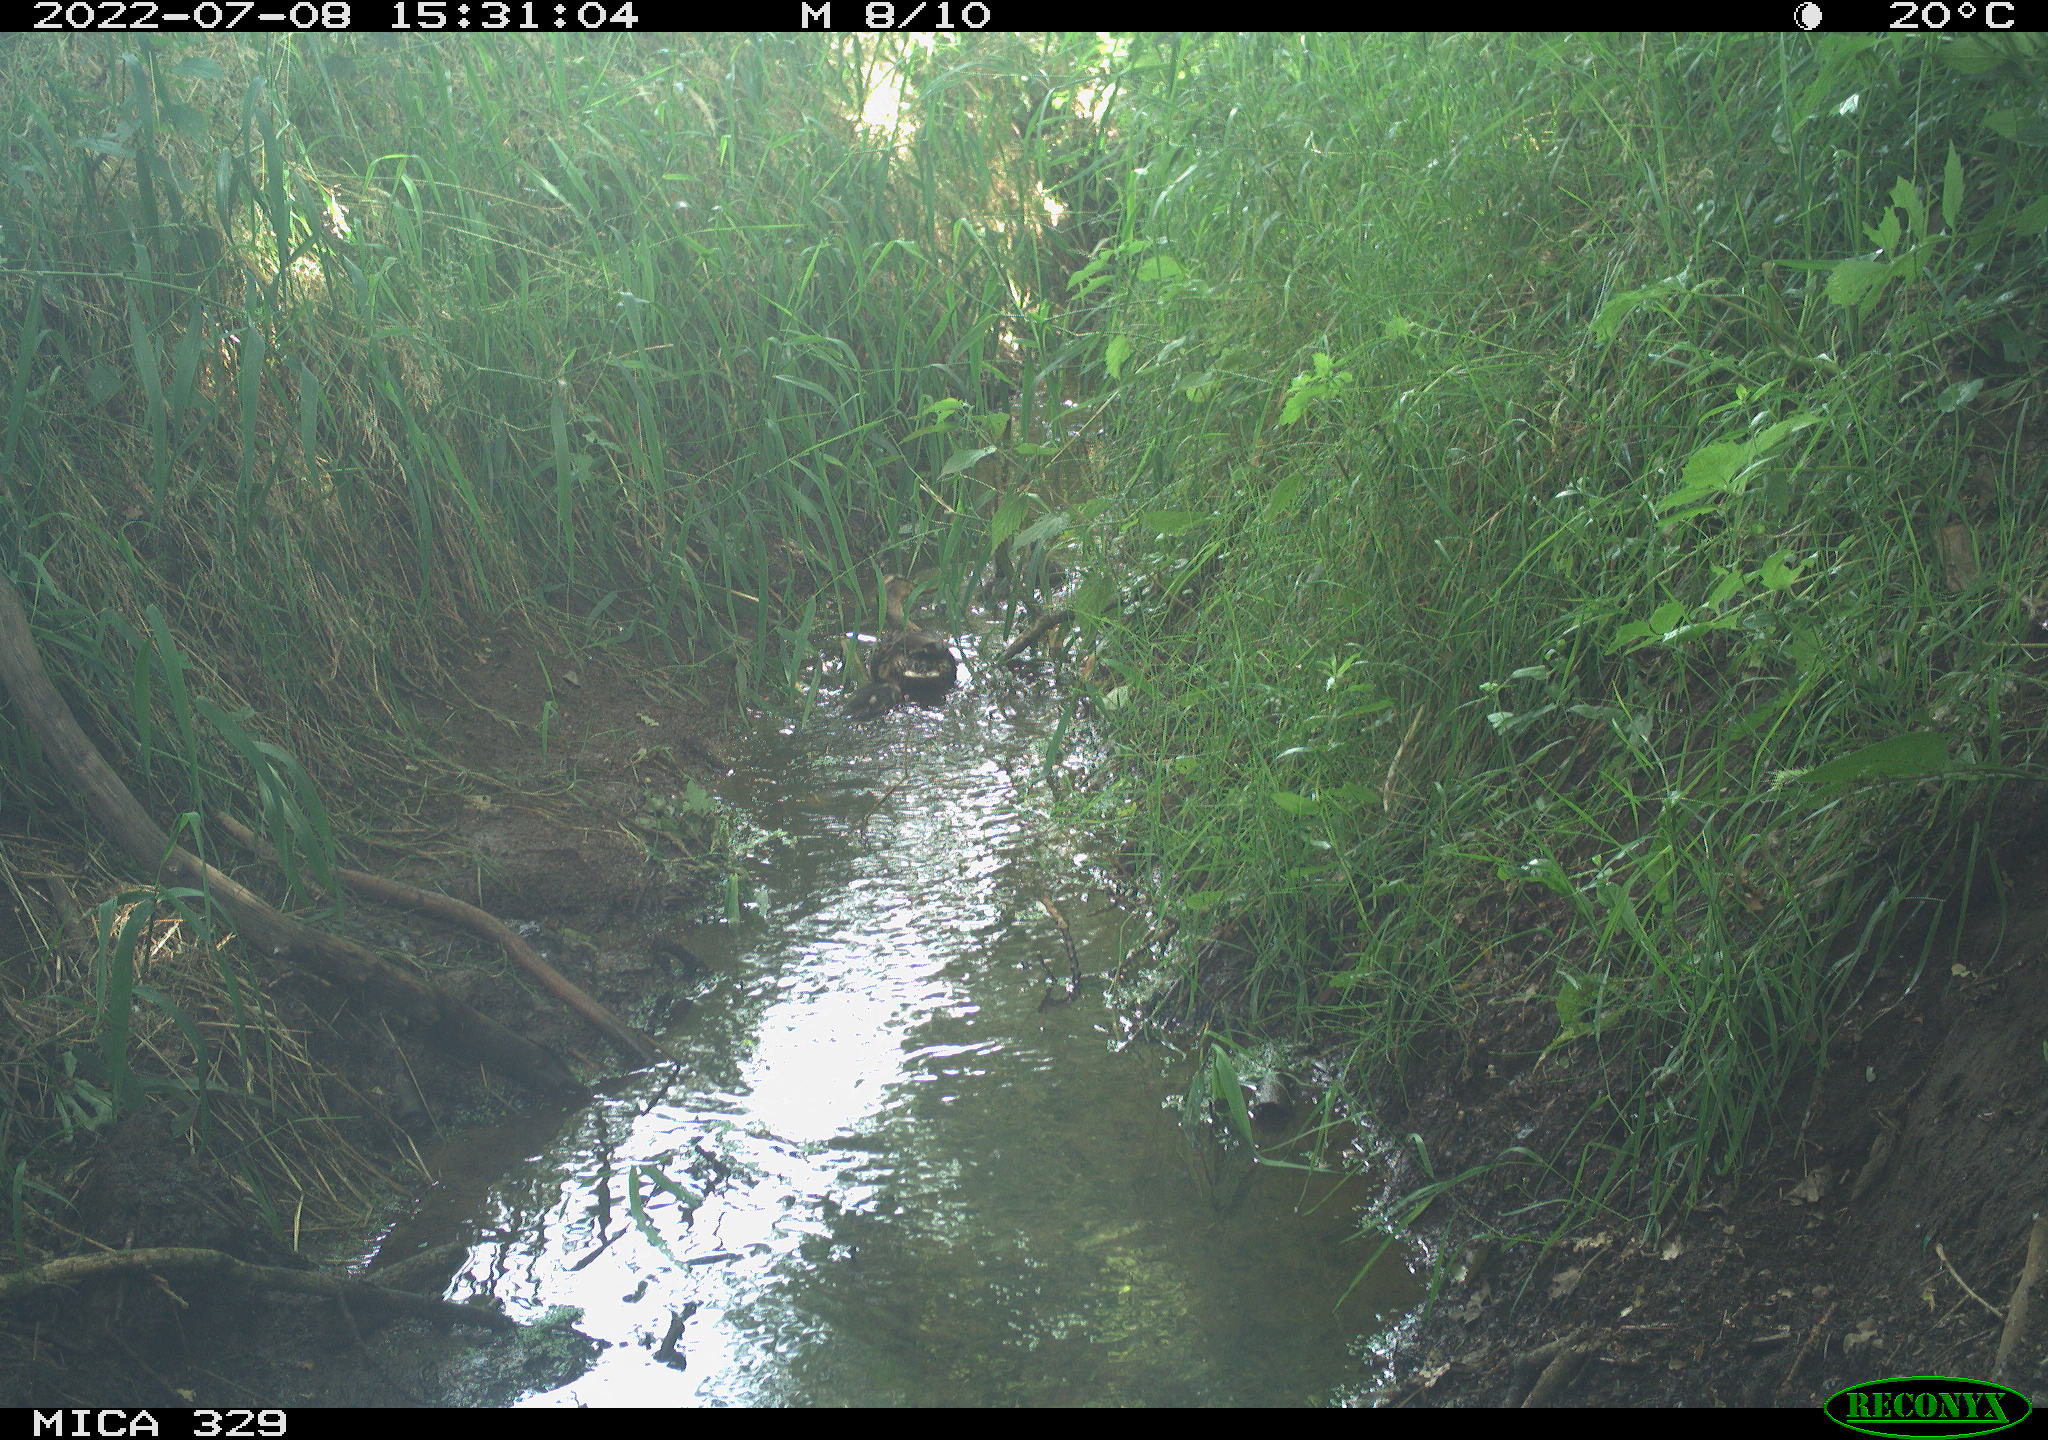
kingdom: Animalia
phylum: Chordata
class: Aves
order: Anseriformes
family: Anatidae
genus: Anas
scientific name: Anas platyrhynchos
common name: Mallard
